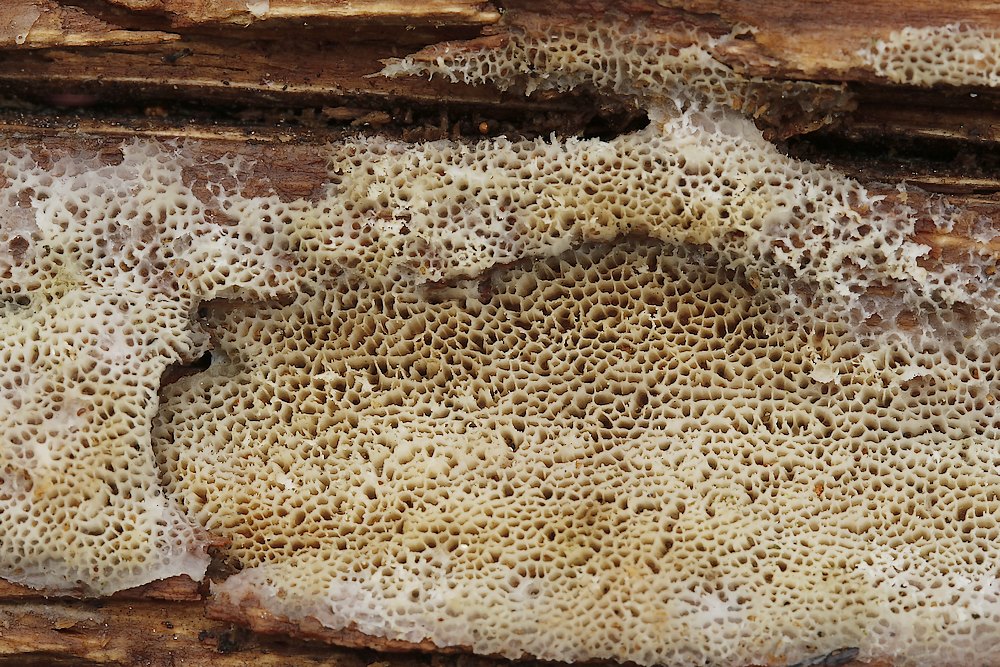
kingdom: Fungi
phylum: Basidiomycota
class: Agaricomycetes
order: Polyporales
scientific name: Polyporales
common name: poresvampordenen
